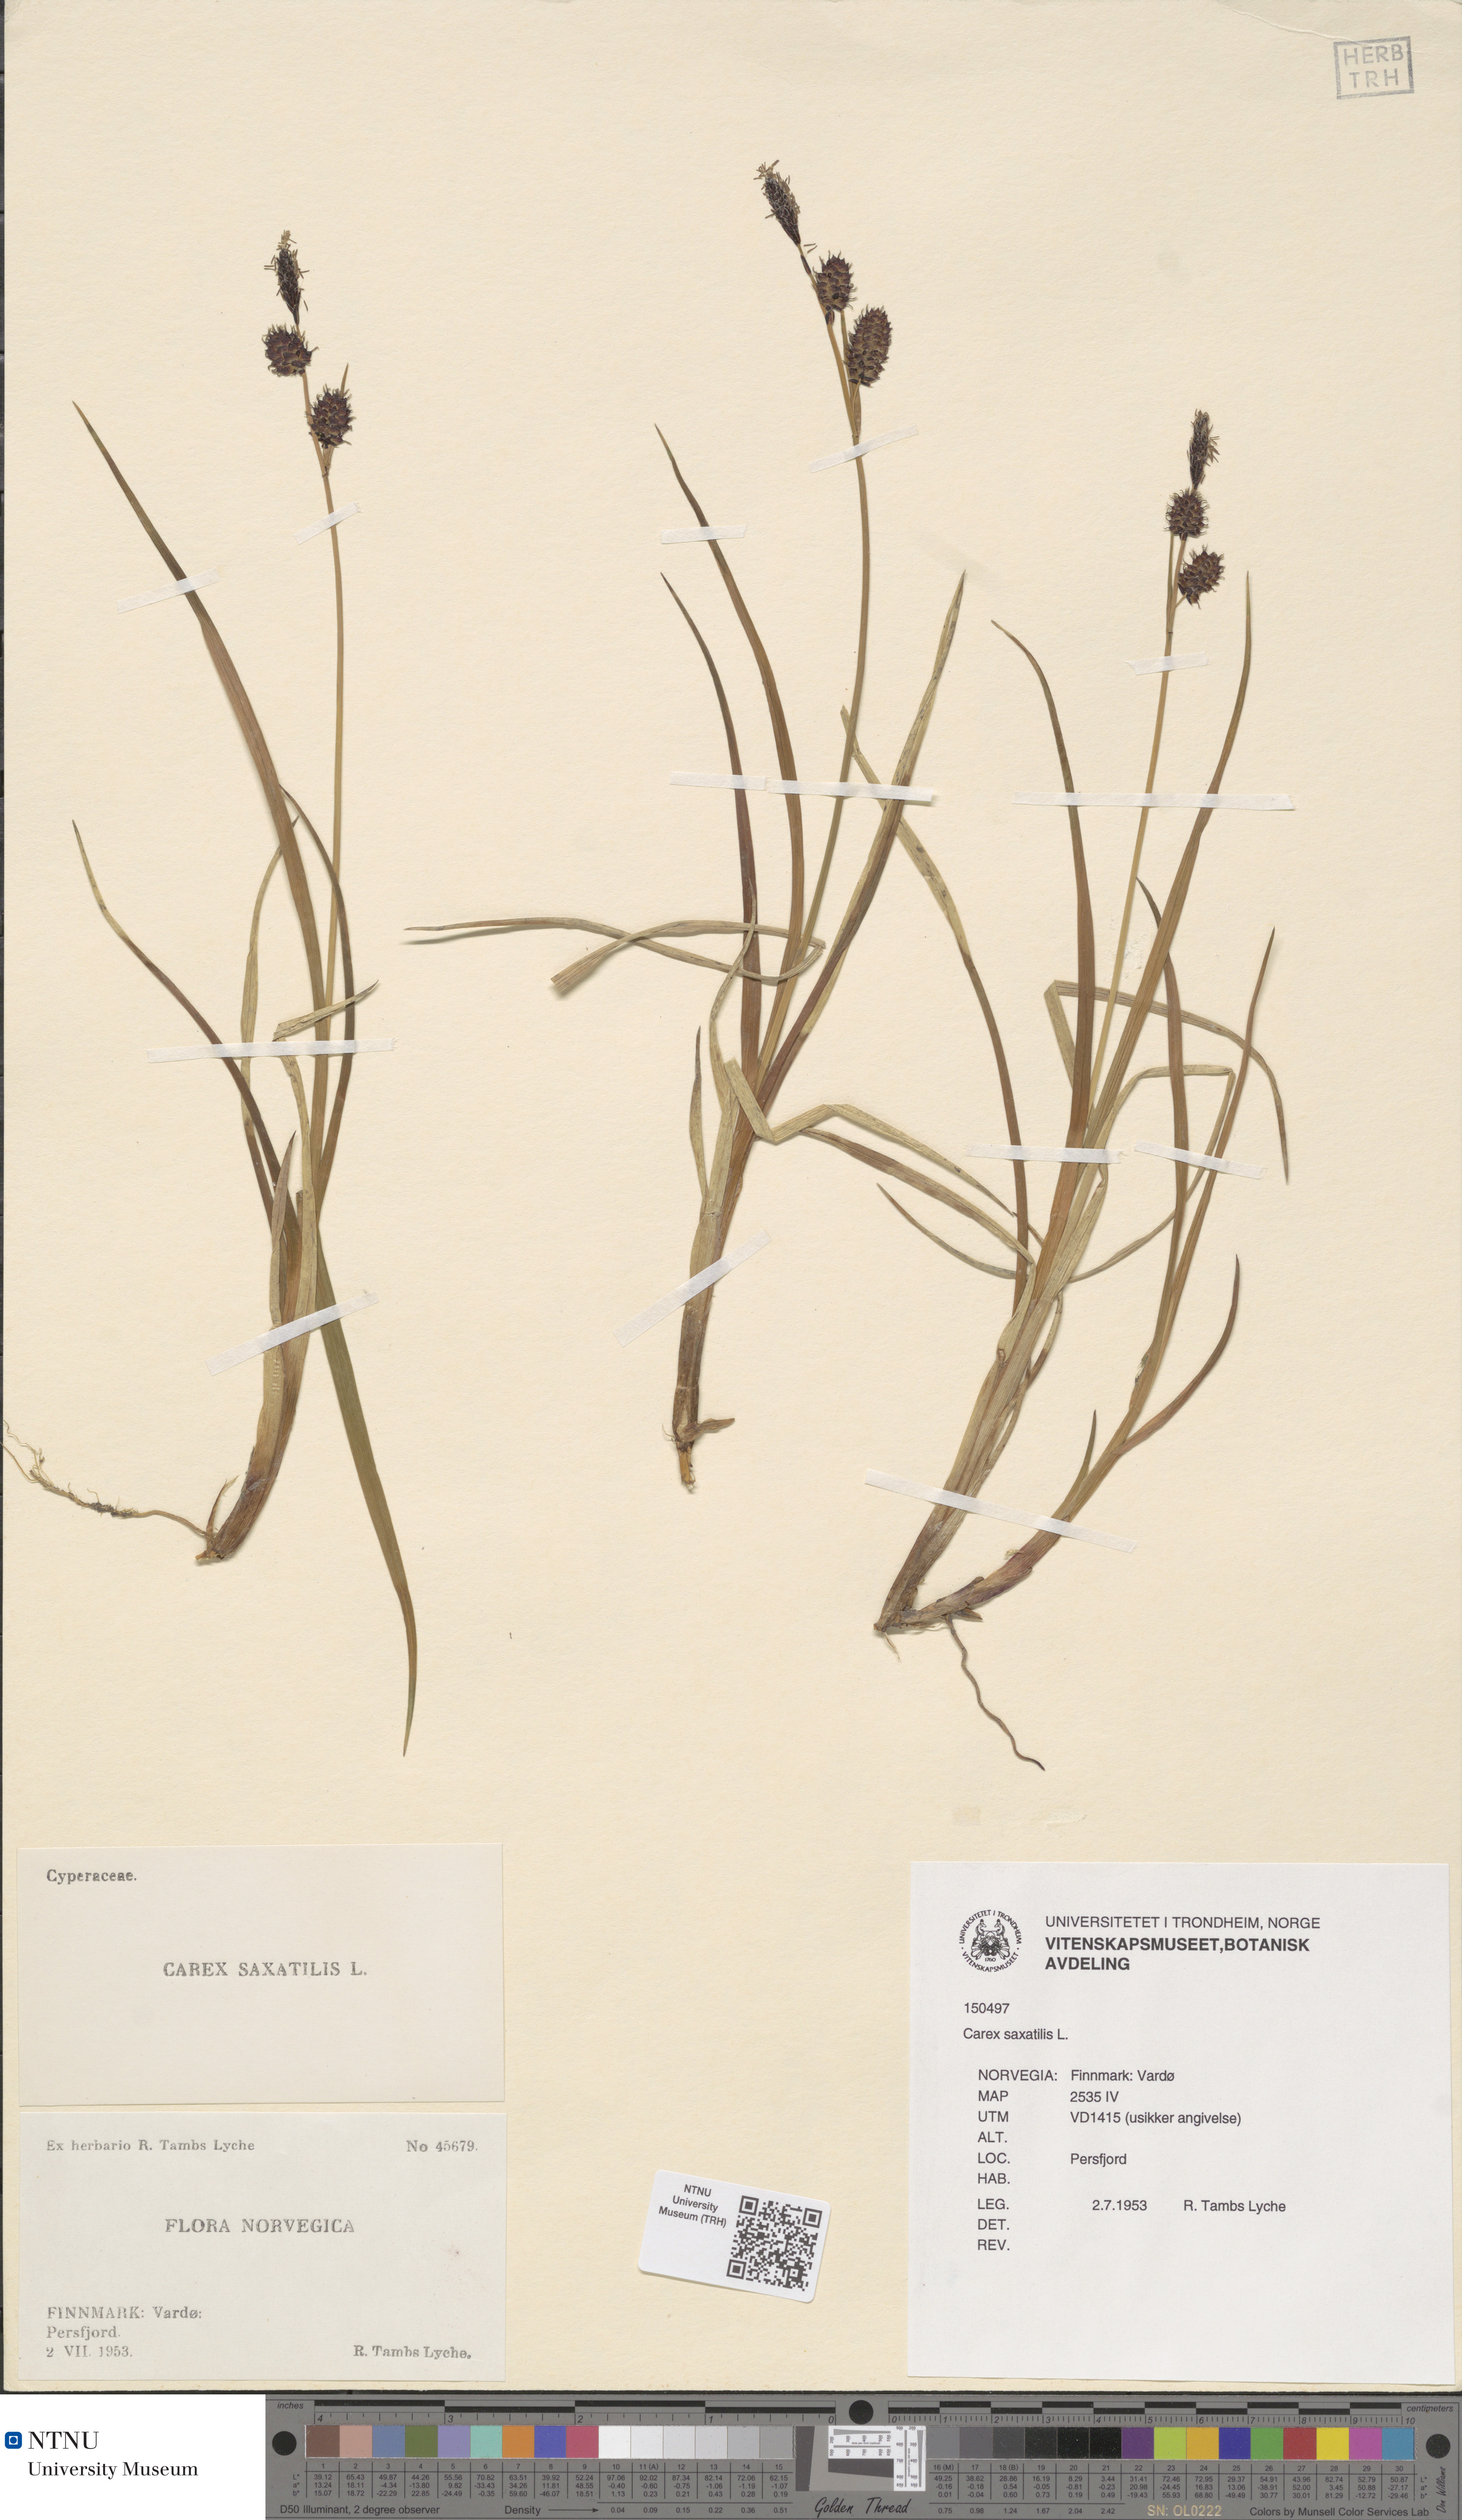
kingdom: Plantae
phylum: Tracheophyta
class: Liliopsida
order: Poales
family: Cyperaceae
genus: Carex
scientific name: Carex saxatilis
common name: Russet sedge
